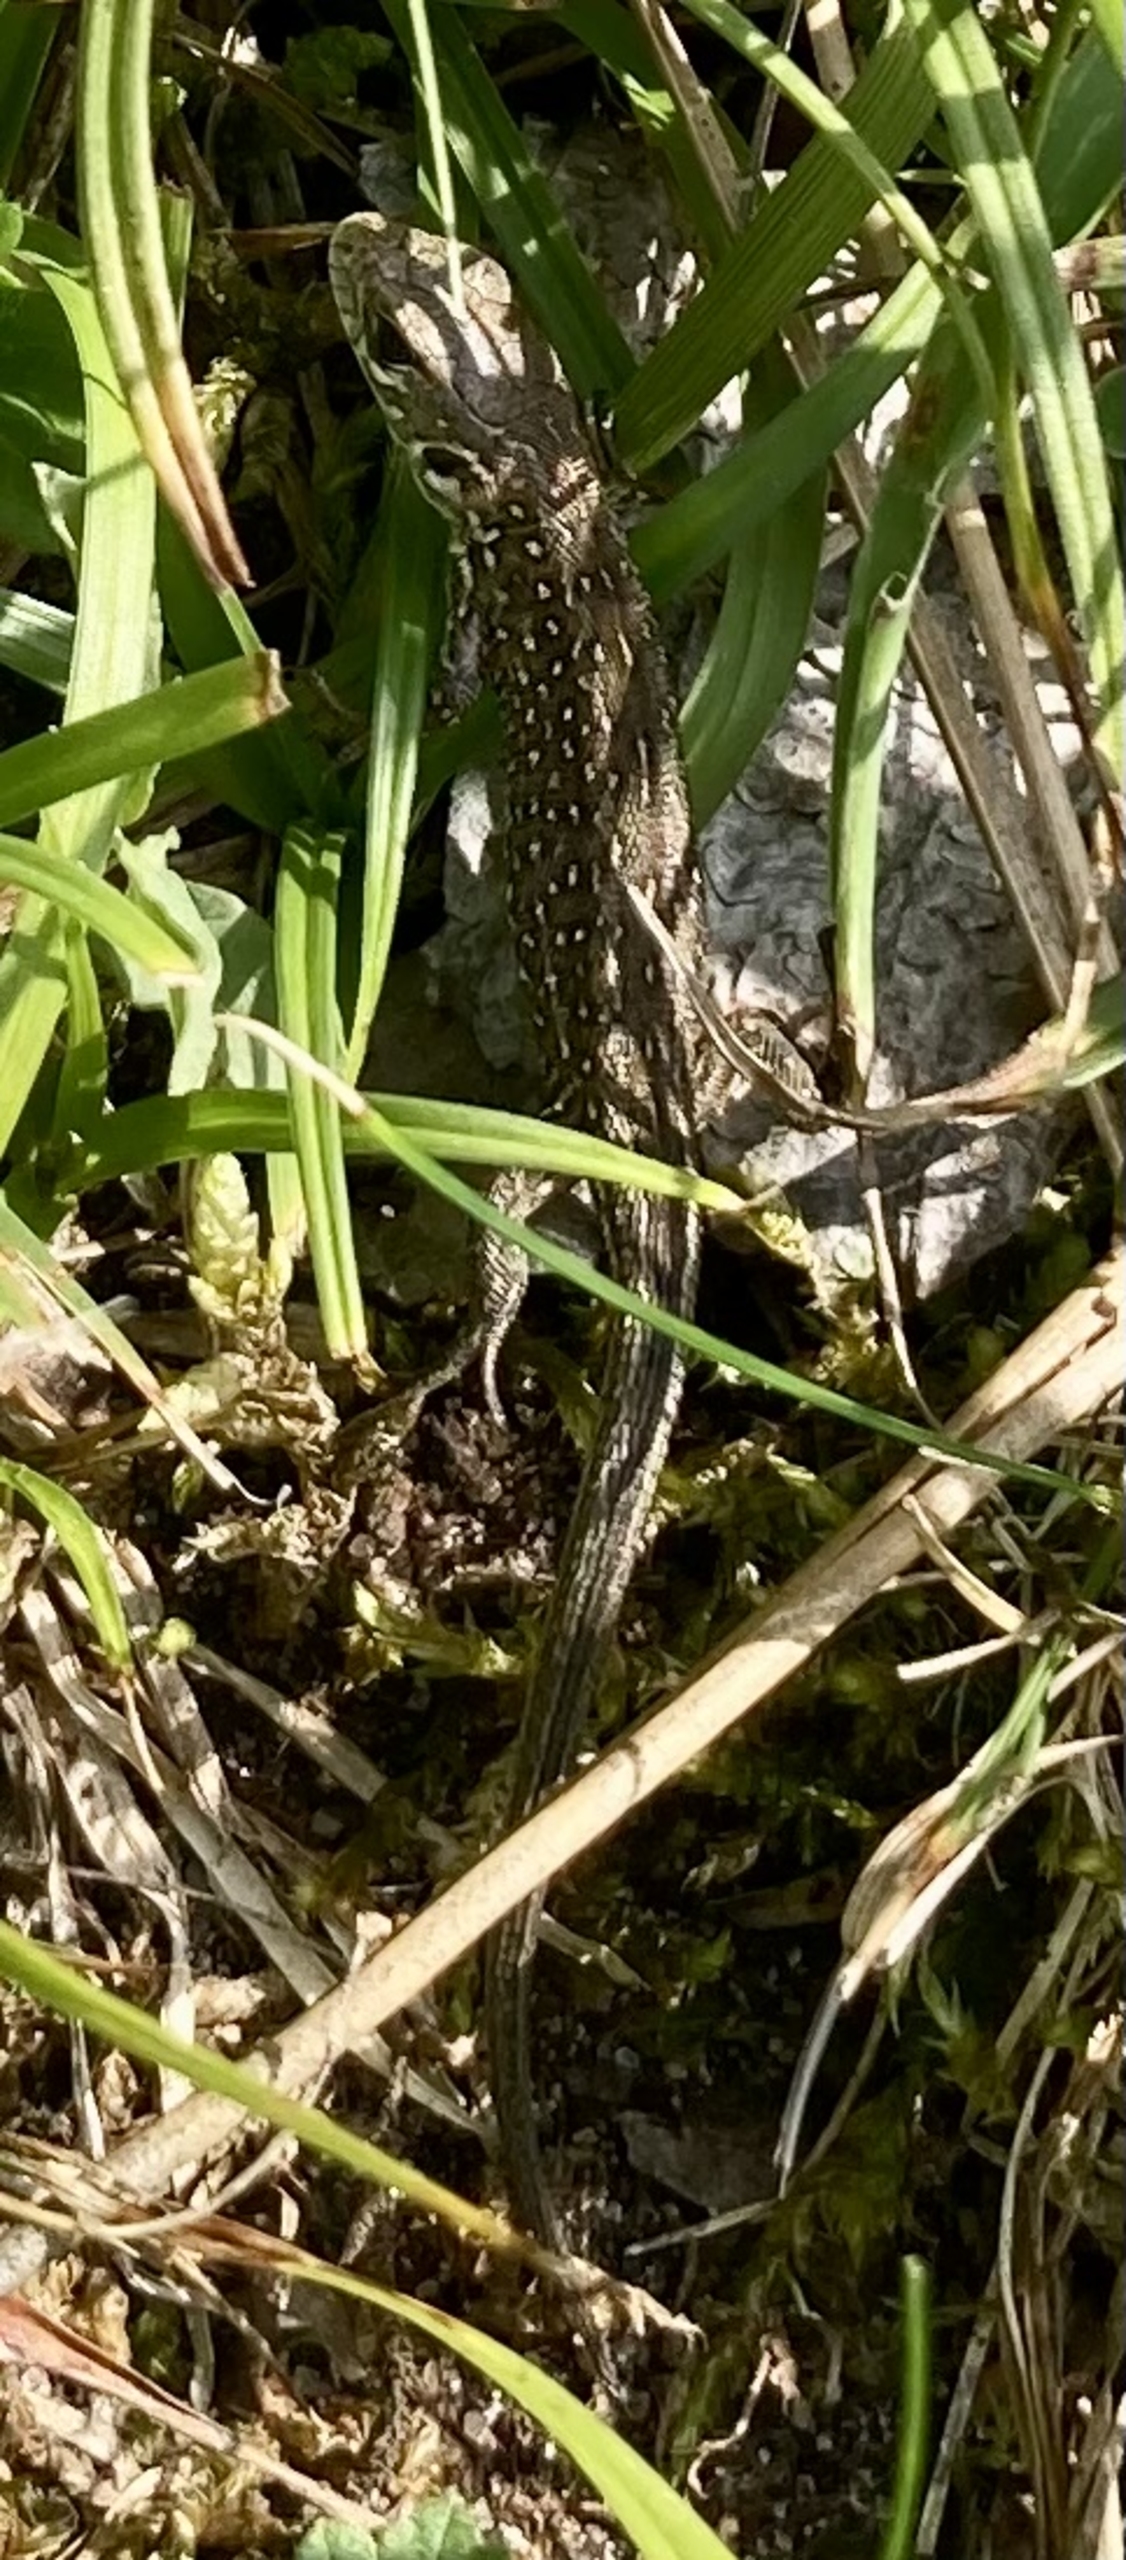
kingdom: Animalia
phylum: Chordata
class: Squamata
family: Lacertidae
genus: Lacerta
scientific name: Lacerta agilis
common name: Markfirben
